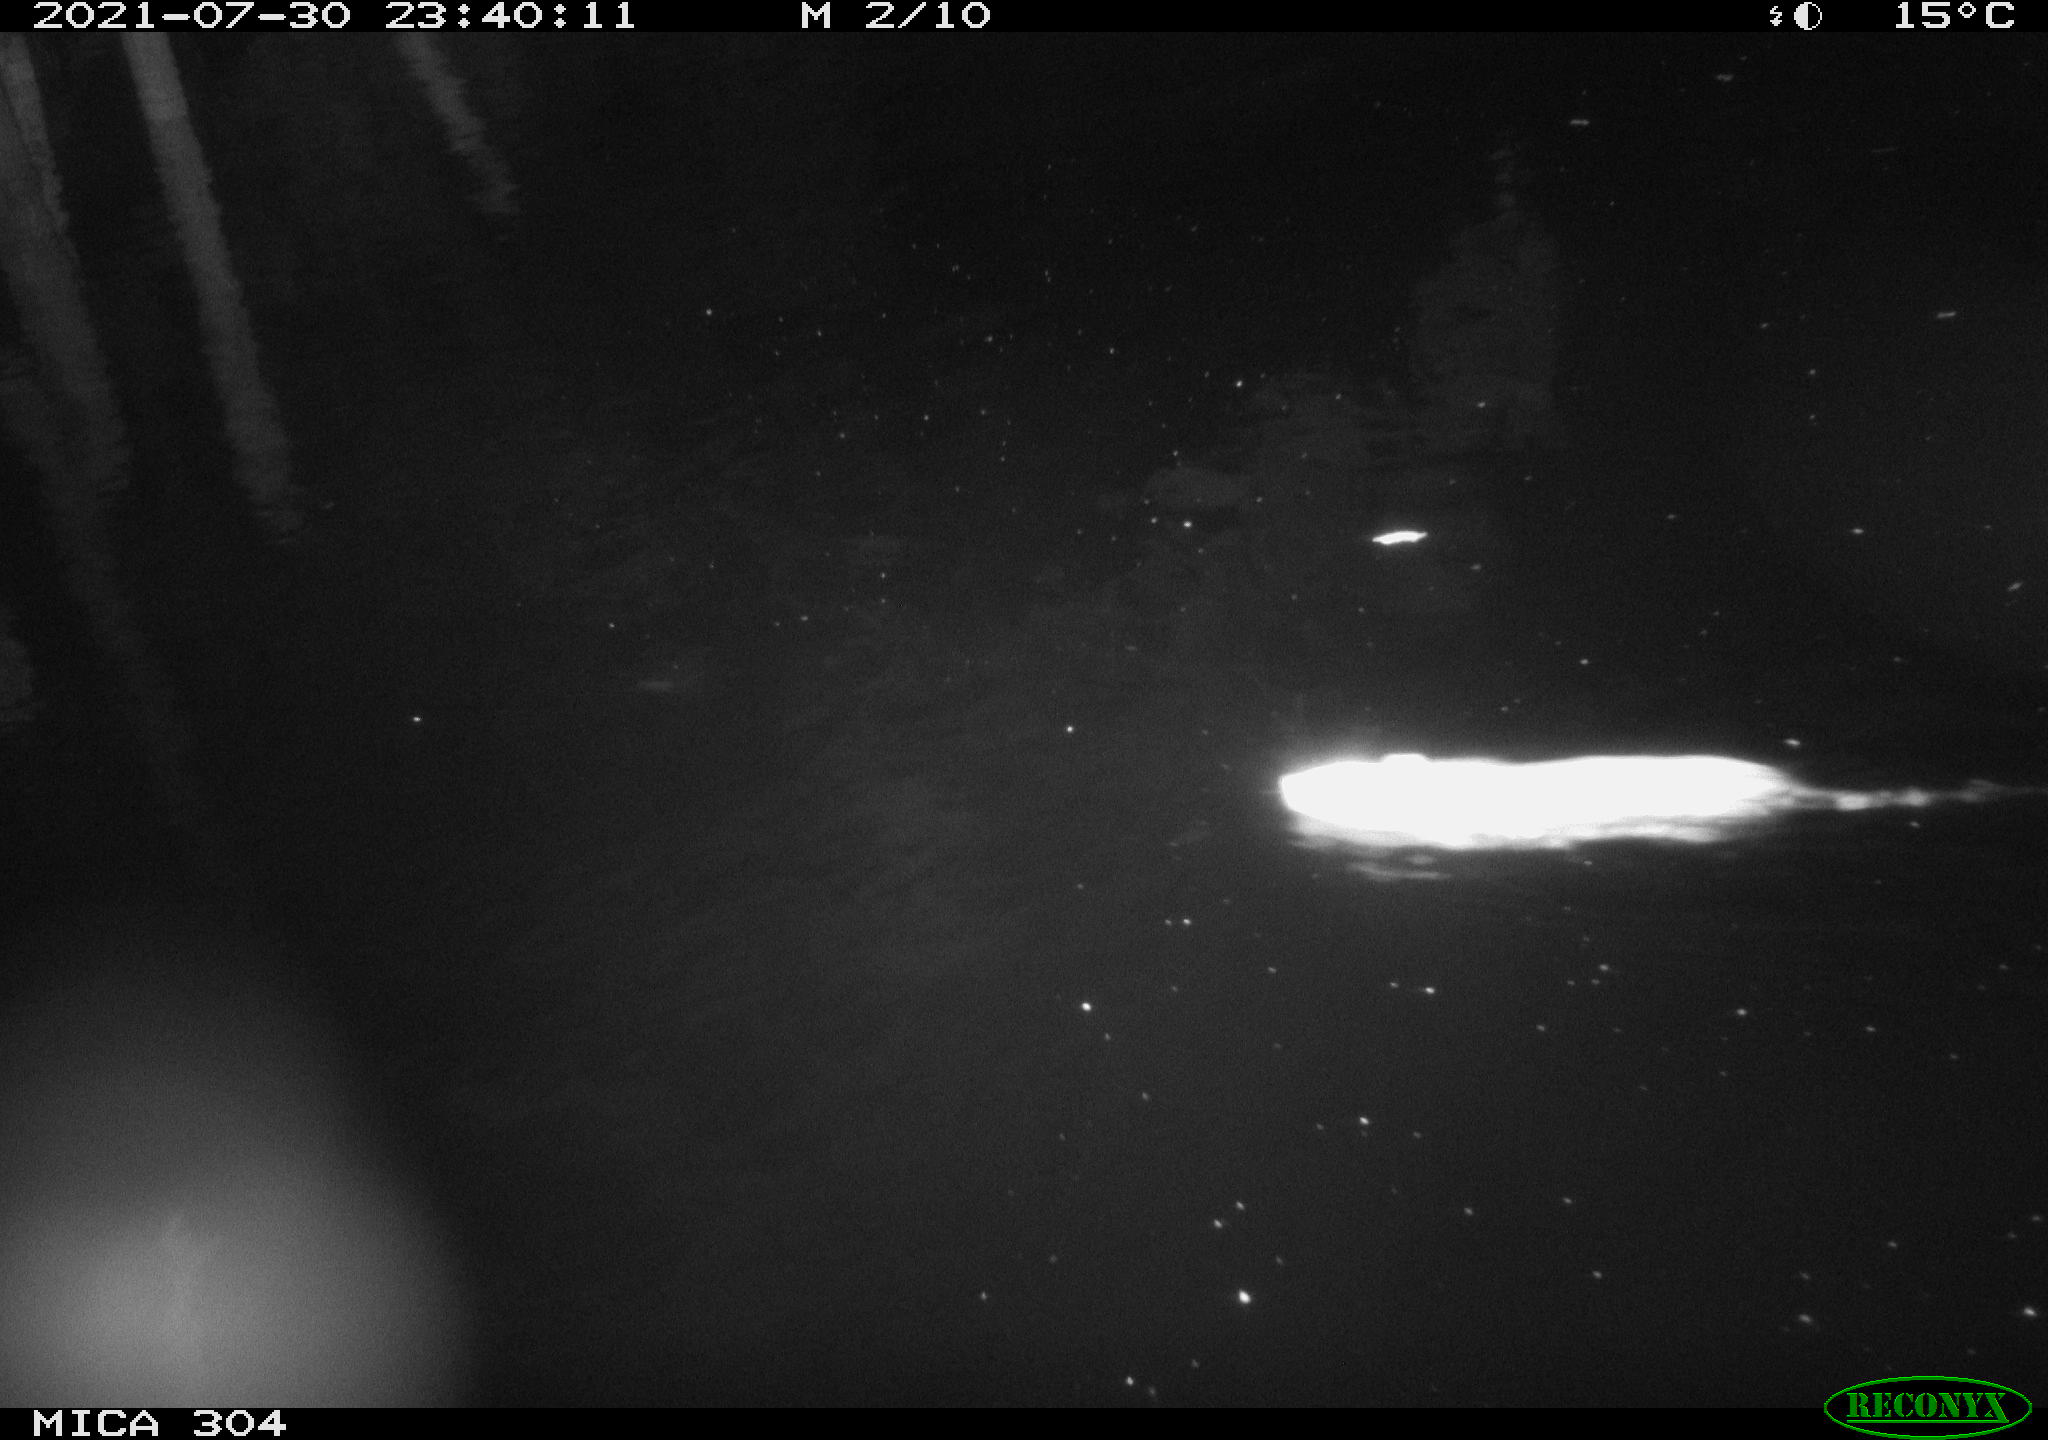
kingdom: Animalia
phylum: Chordata
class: Mammalia
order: Rodentia
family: Muridae
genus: Rattus
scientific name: Rattus norvegicus
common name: Brown rat
